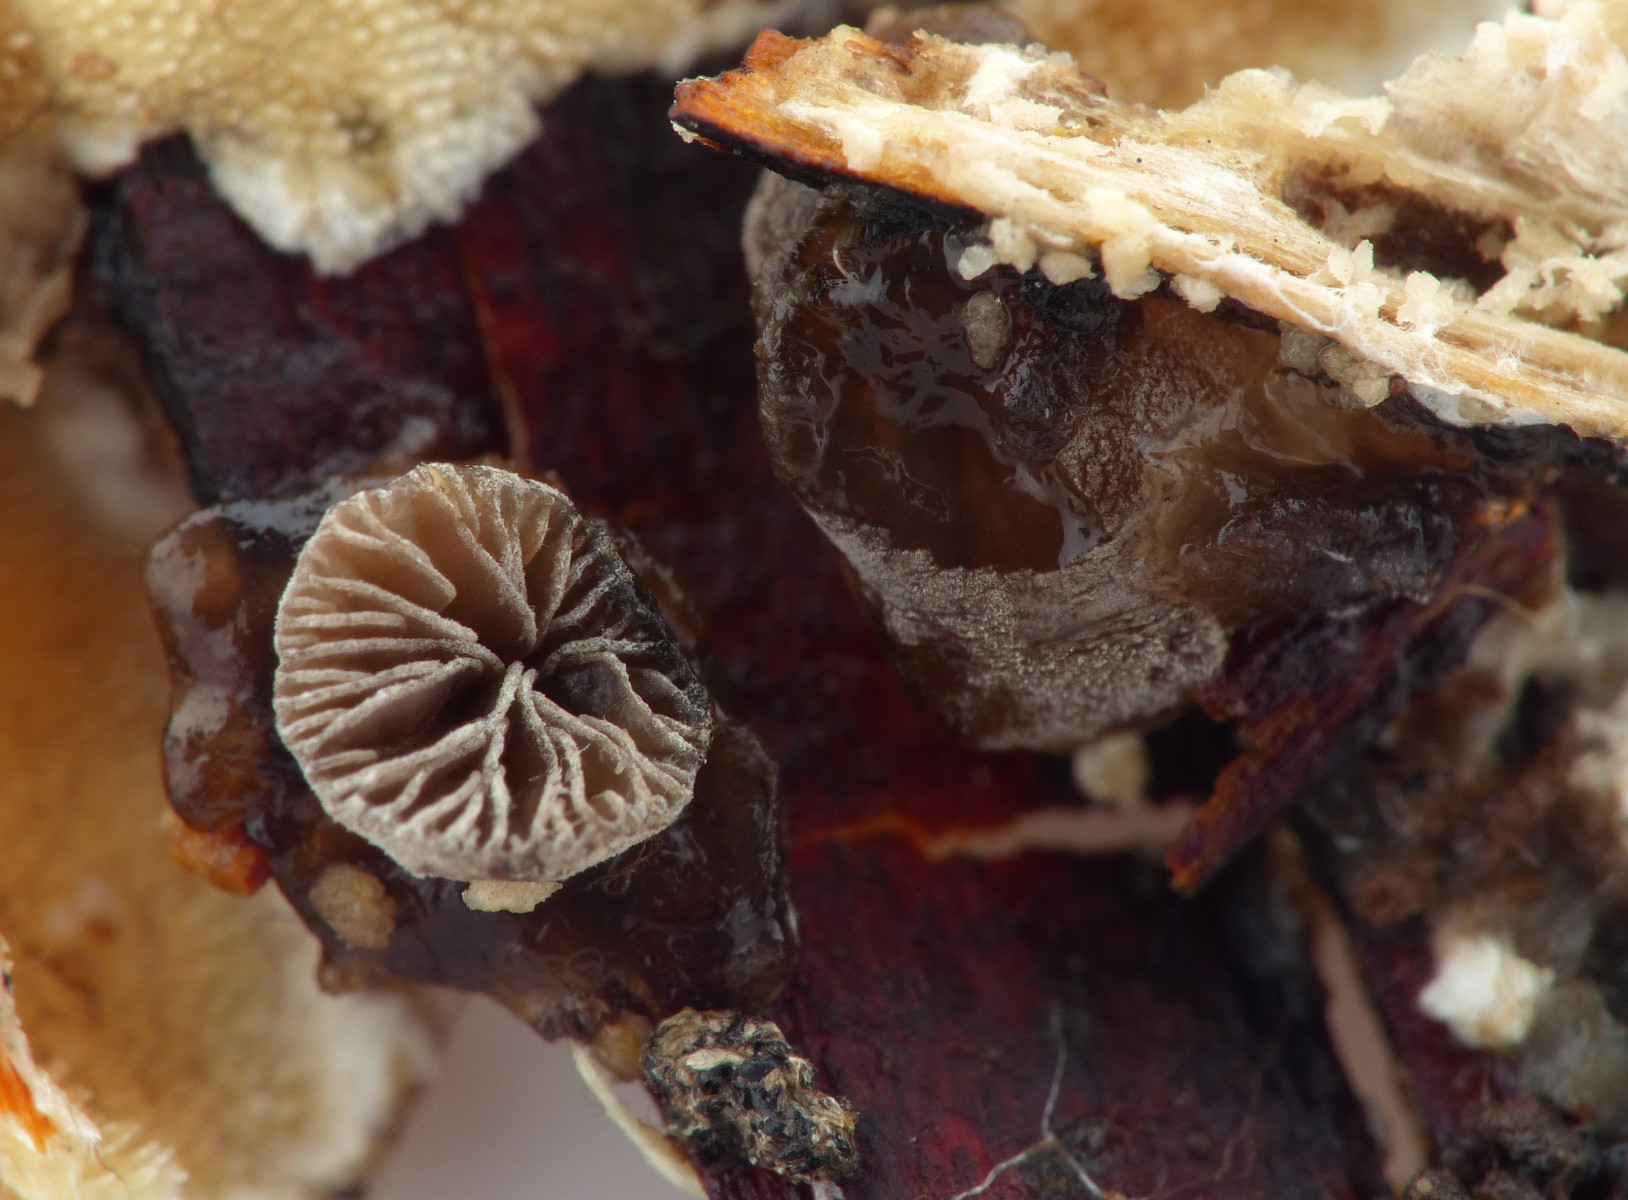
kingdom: Fungi
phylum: Basidiomycota
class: Agaricomycetes
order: Agaricales
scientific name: Agaricales
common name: champignonordenen
